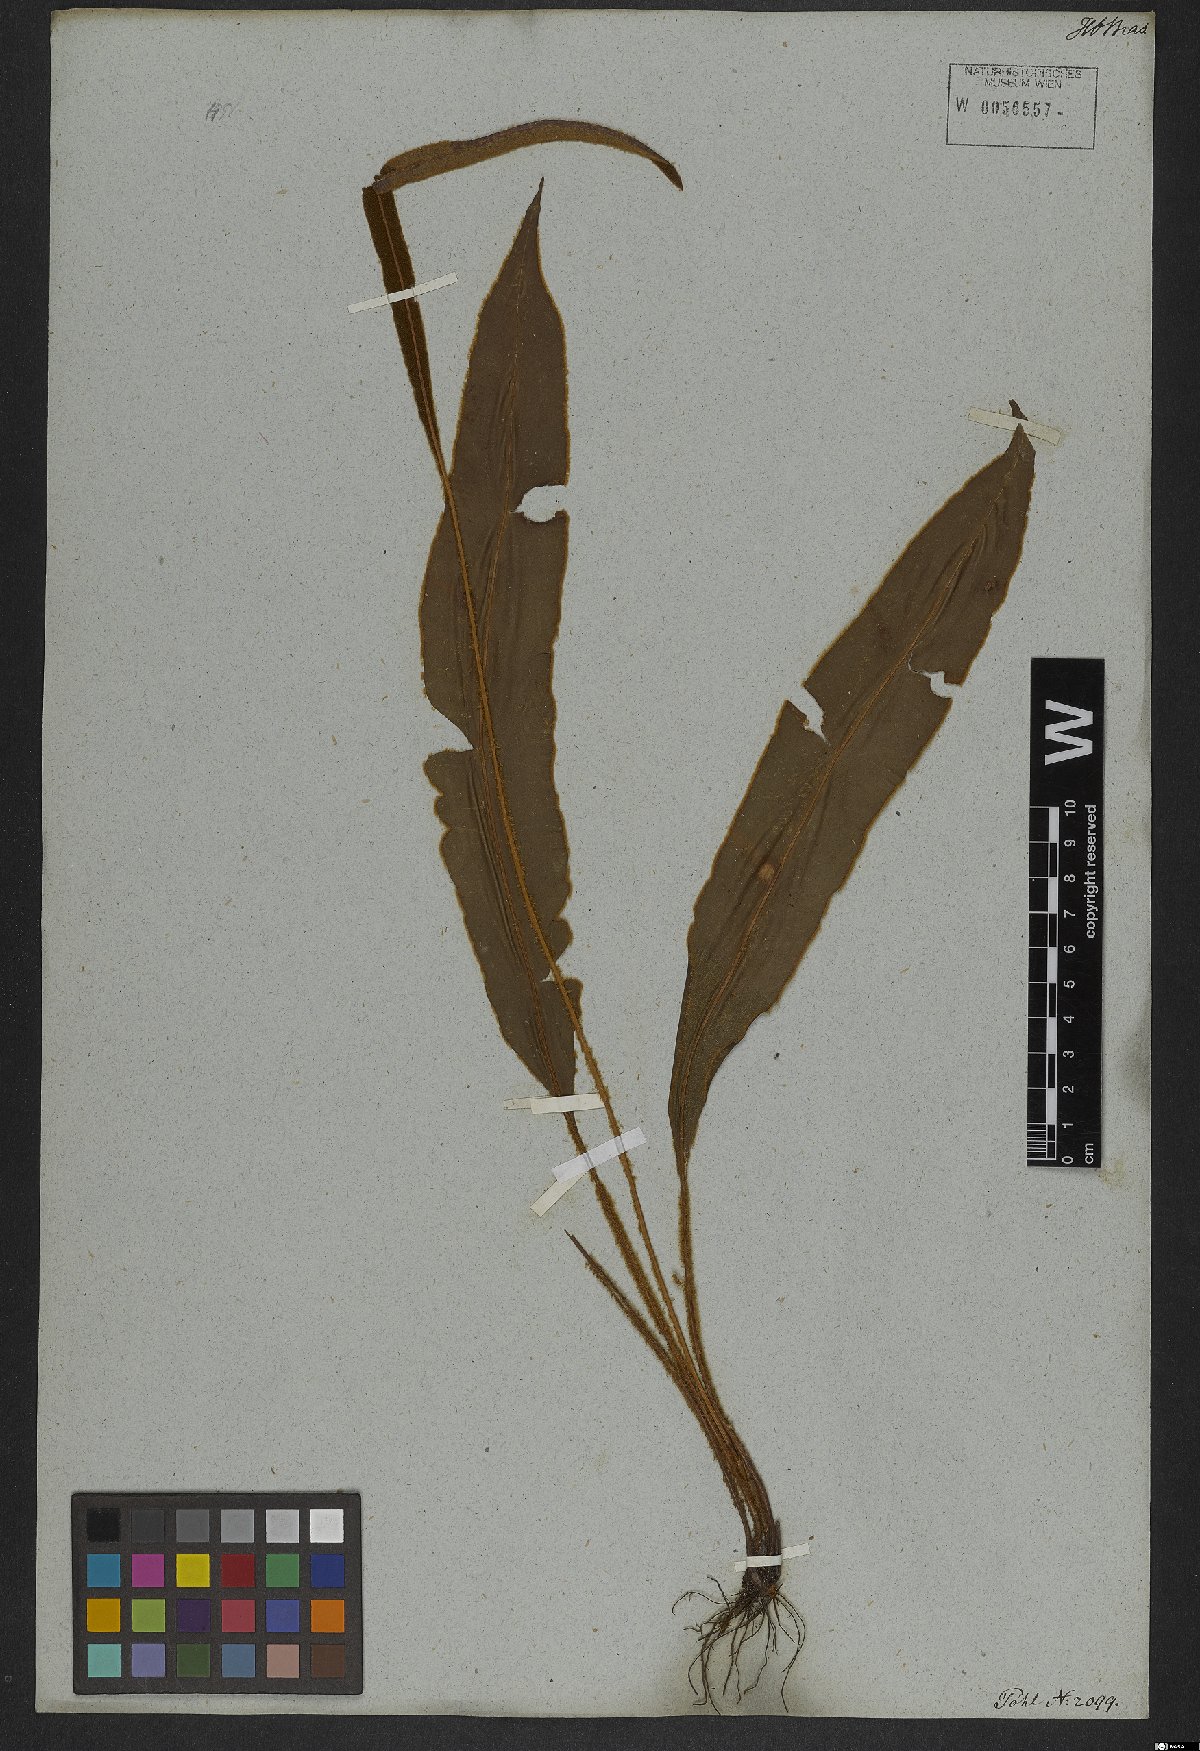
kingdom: Plantae
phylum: Tracheophyta
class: Polypodiopsida
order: Polypodiales
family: Dryopteridaceae
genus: Elaphoglossum
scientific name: Elaphoglossum perelegans
